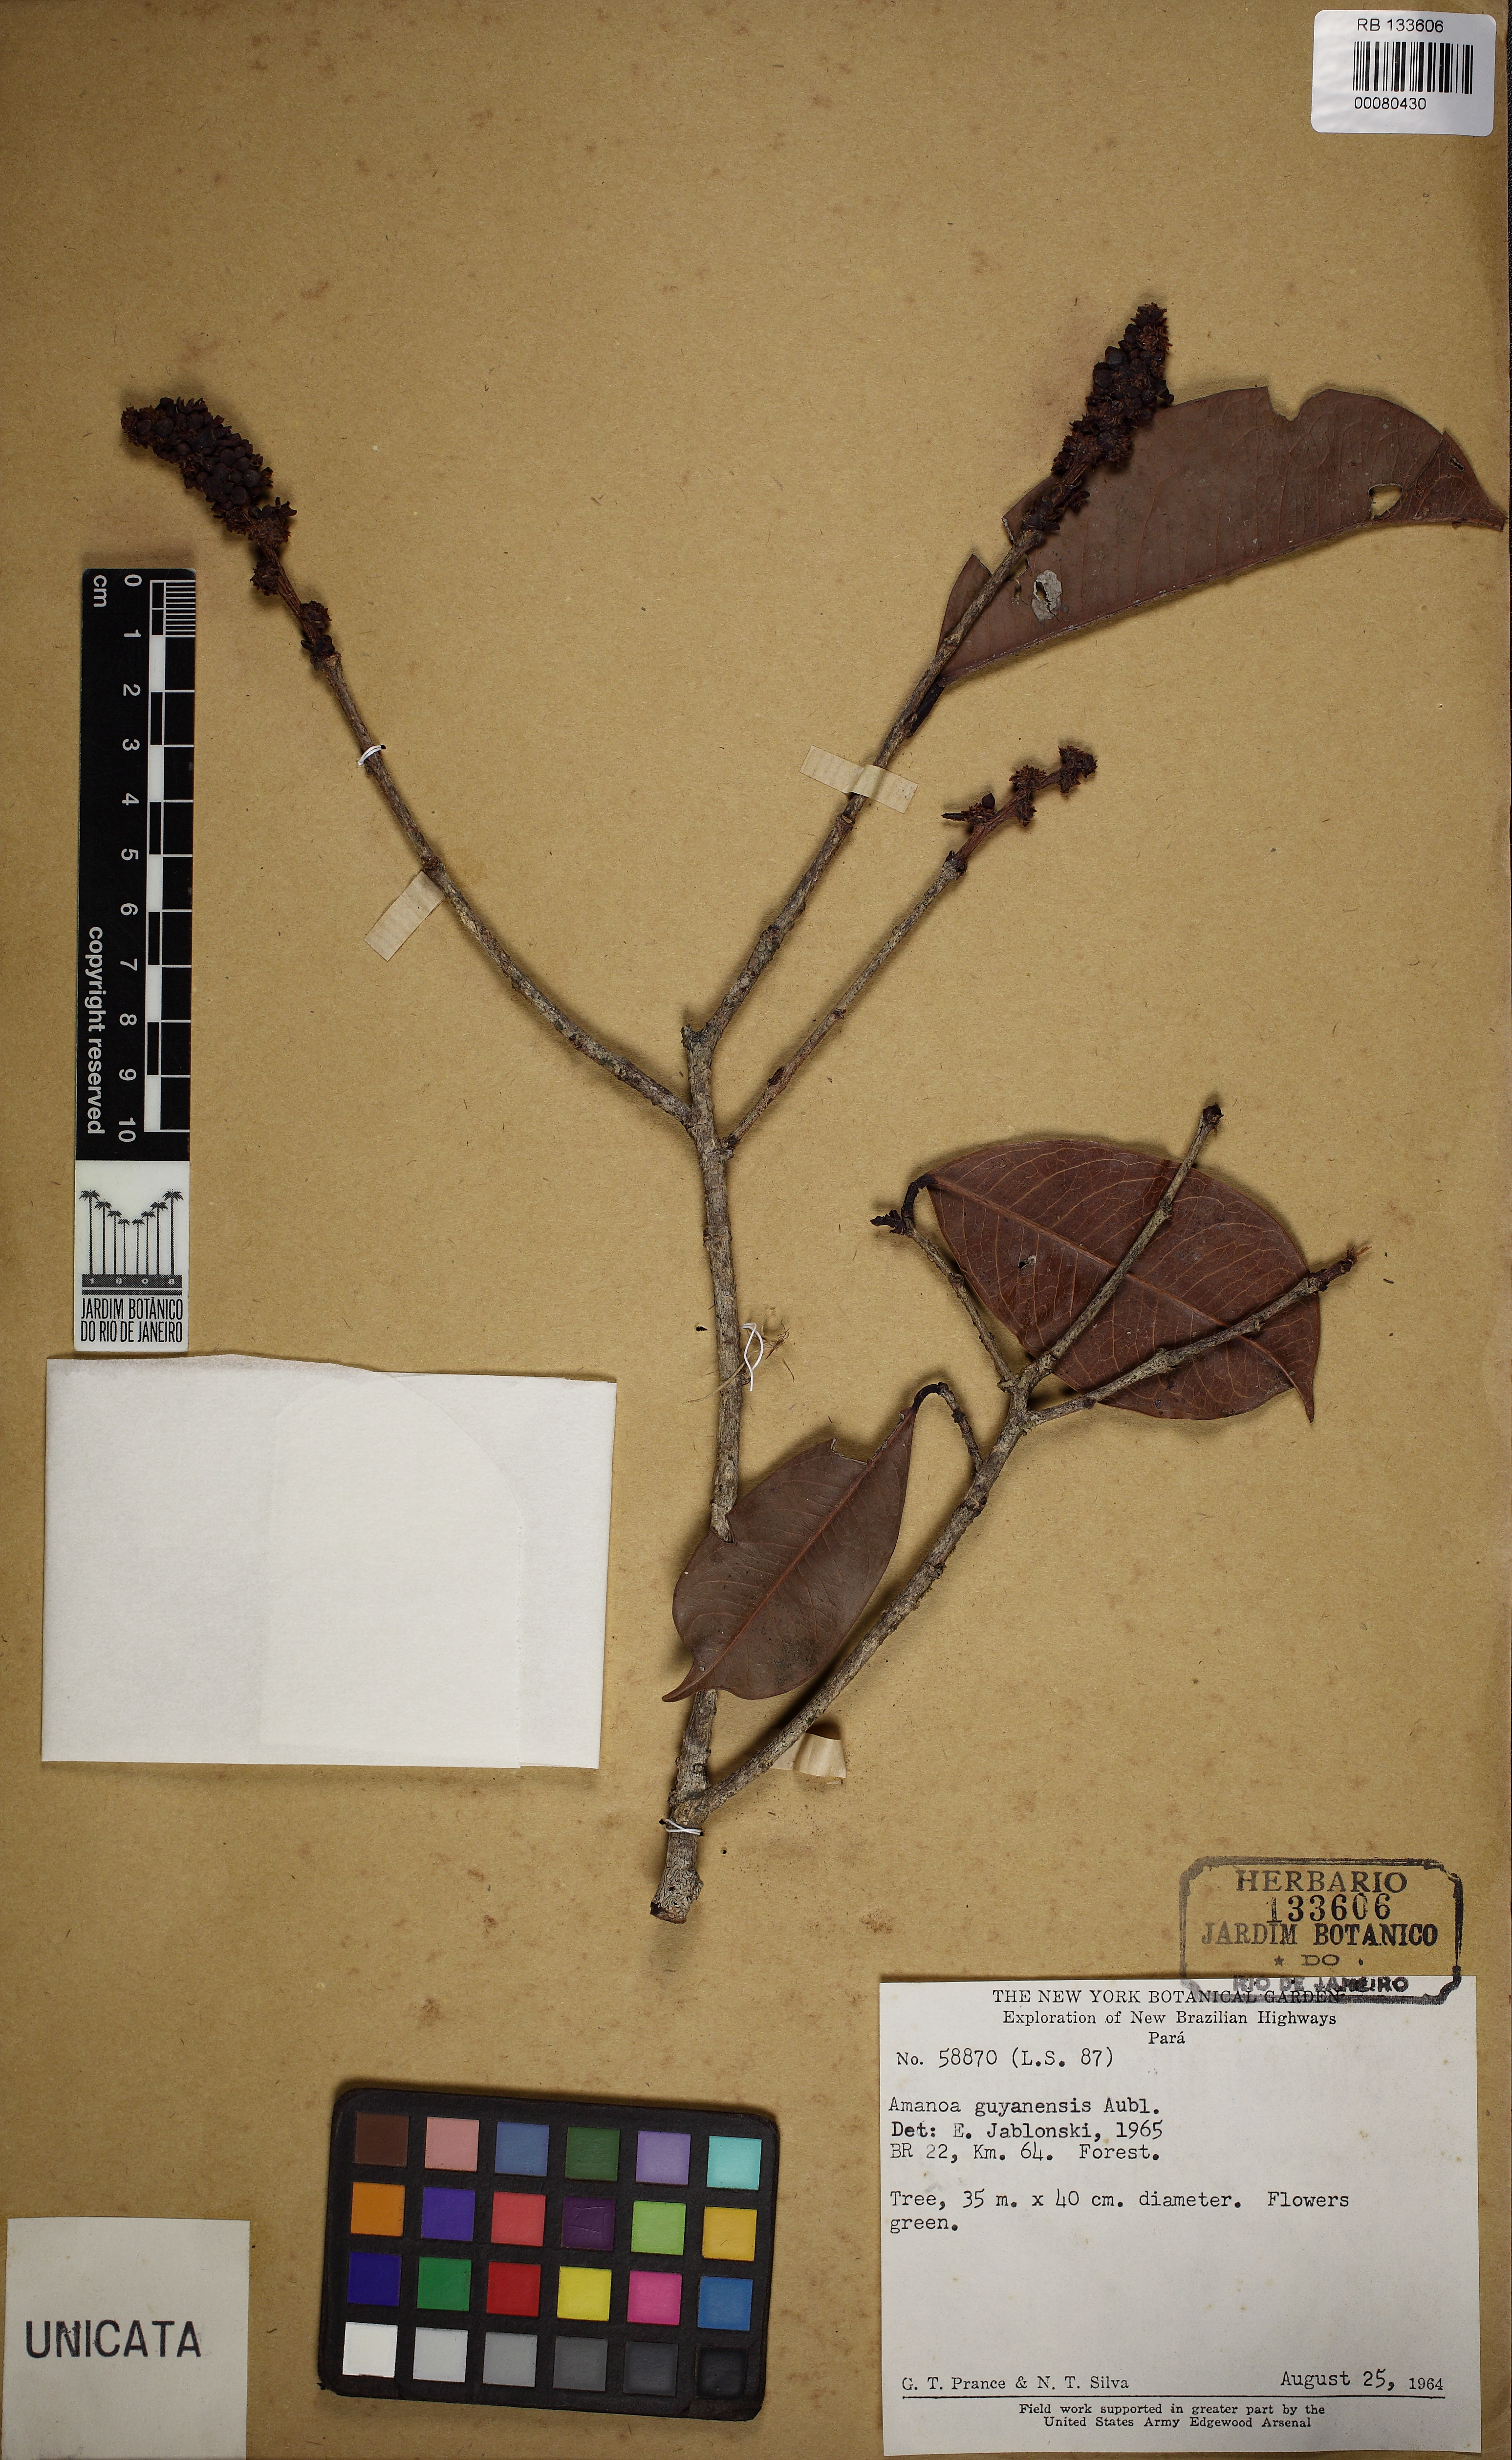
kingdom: Plantae
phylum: Tracheophyta
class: Magnoliopsida
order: Malpighiales
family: Phyllanthaceae
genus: Amanoa
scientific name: Amanoa guianensis
